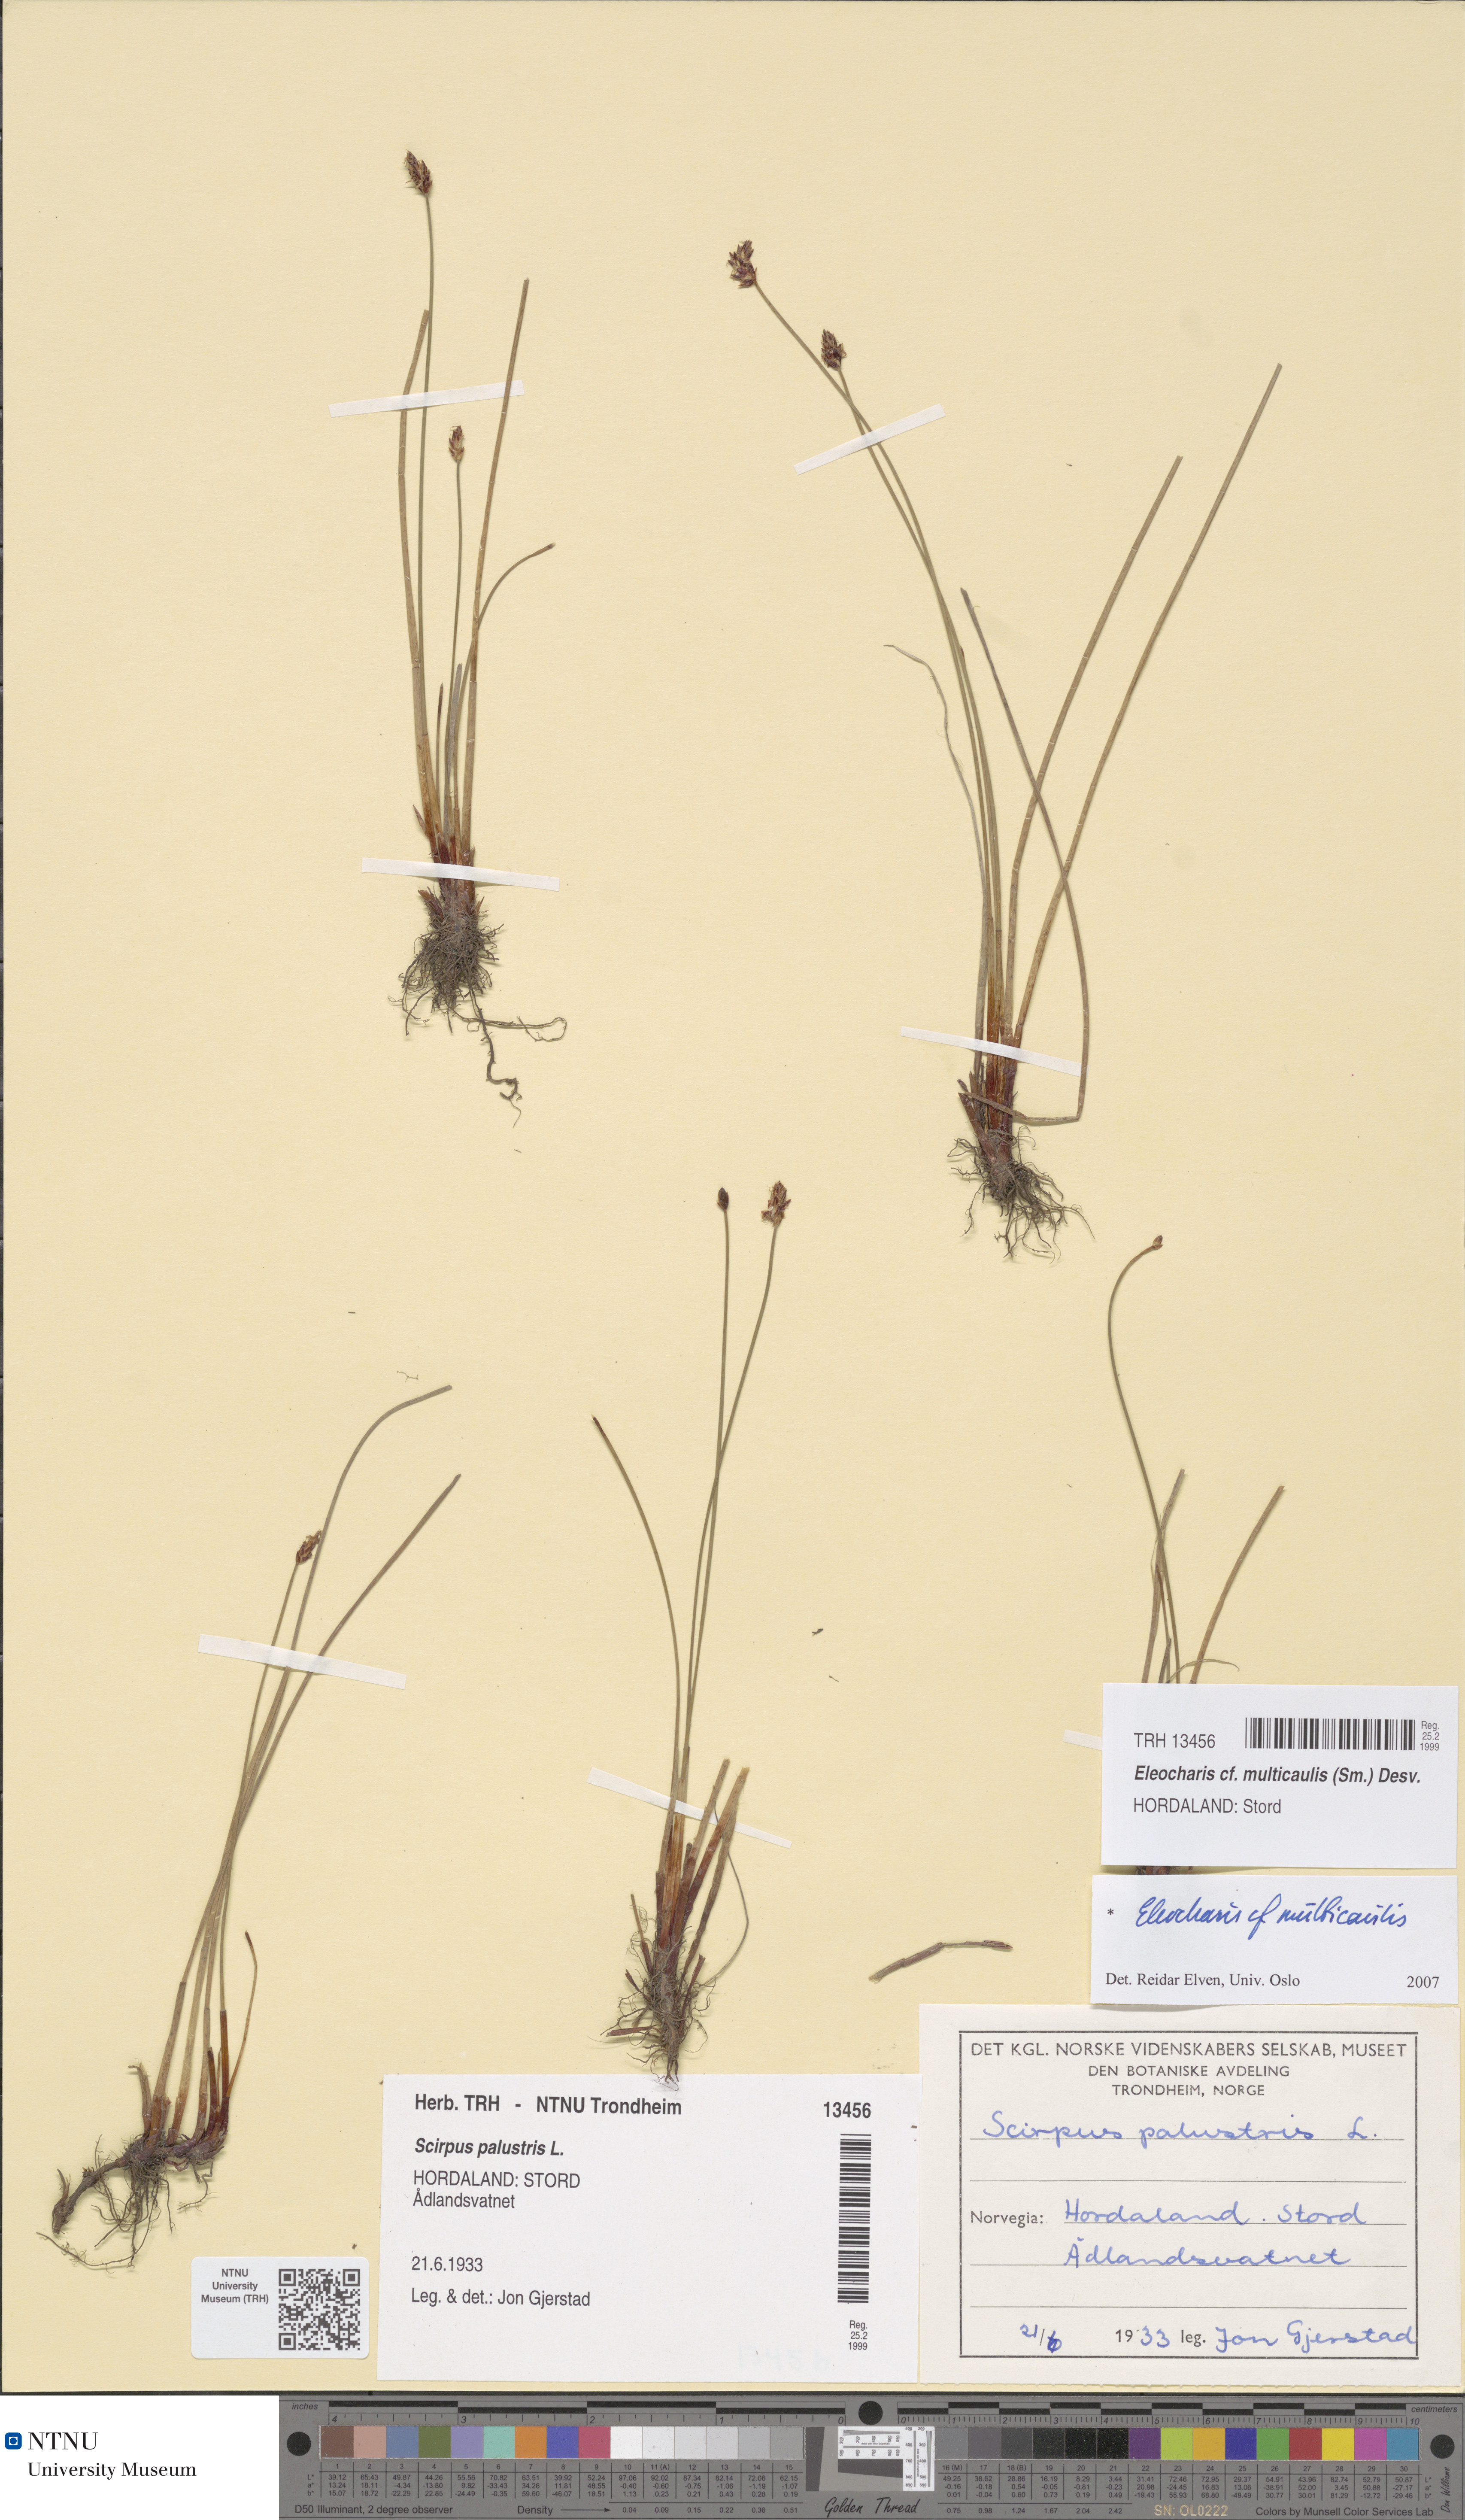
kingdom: Plantae
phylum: Tracheophyta
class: Liliopsida
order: Poales
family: Cyperaceae
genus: Eleocharis
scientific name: Eleocharis multicaulis
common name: Many-stalked spike-rush
